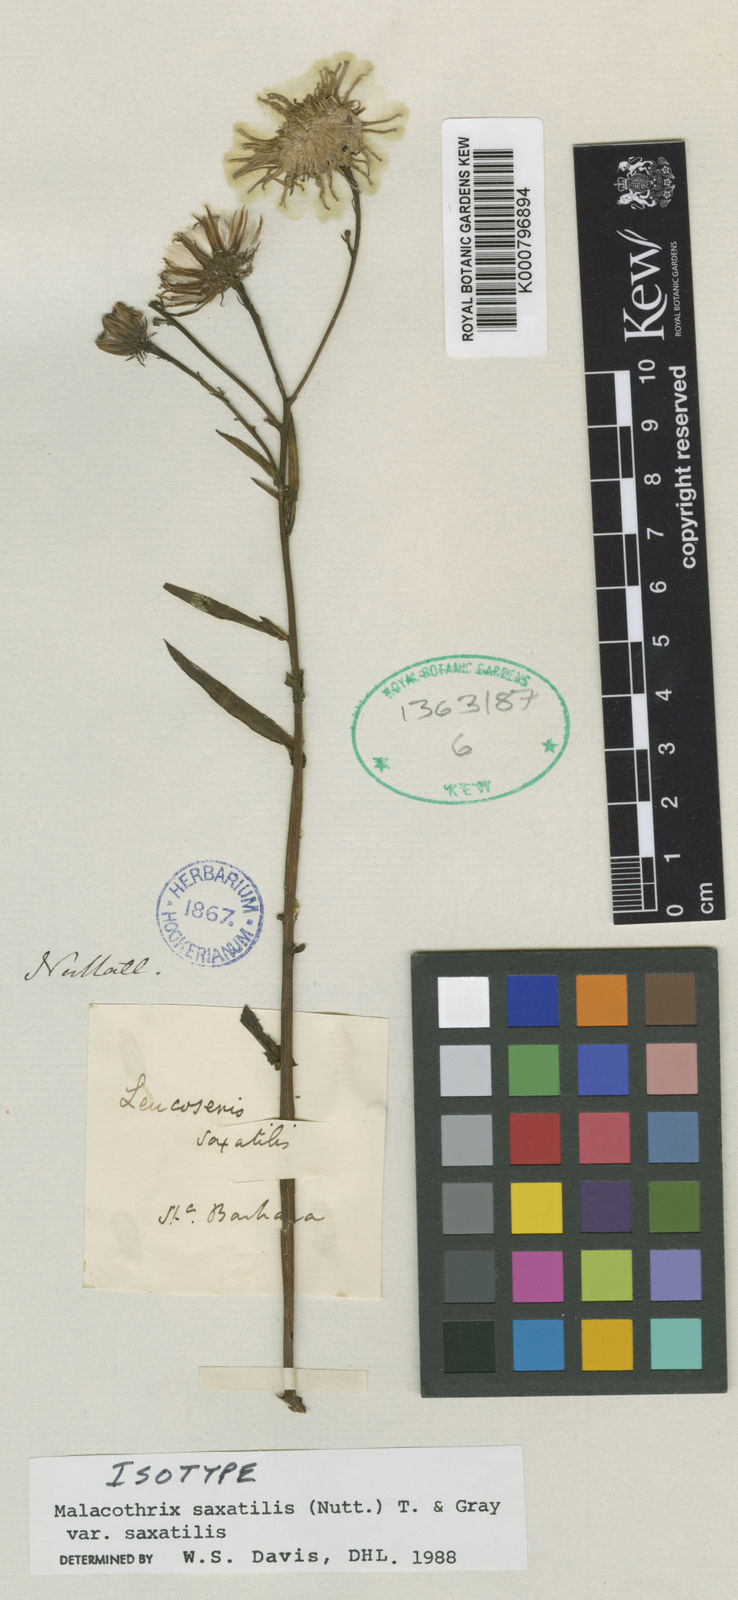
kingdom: Plantae
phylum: Tracheophyta
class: Magnoliopsida
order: Asterales
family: Asteraceae
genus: Malacothrix
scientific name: Malacothrix saxatilis
